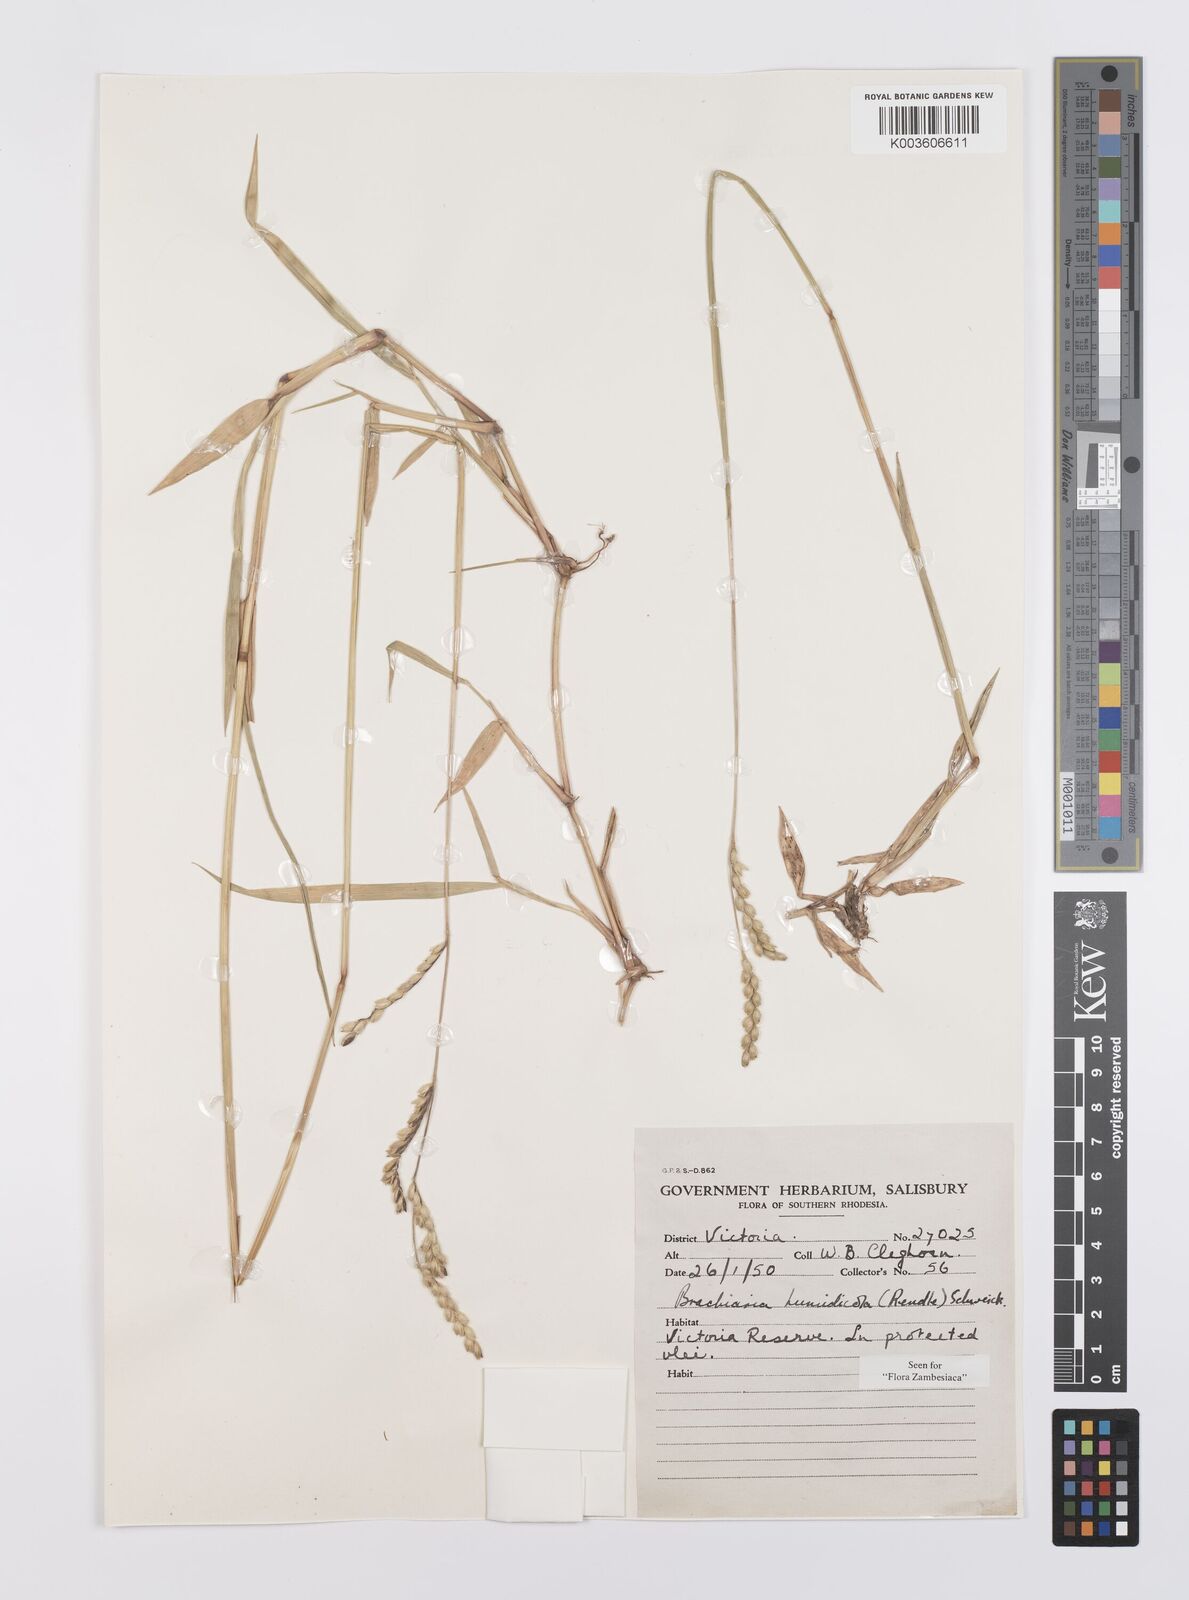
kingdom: Plantae
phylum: Tracheophyta
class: Liliopsida
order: Poales
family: Poaceae
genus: Urochloa
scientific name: Urochloa dictyoneura
